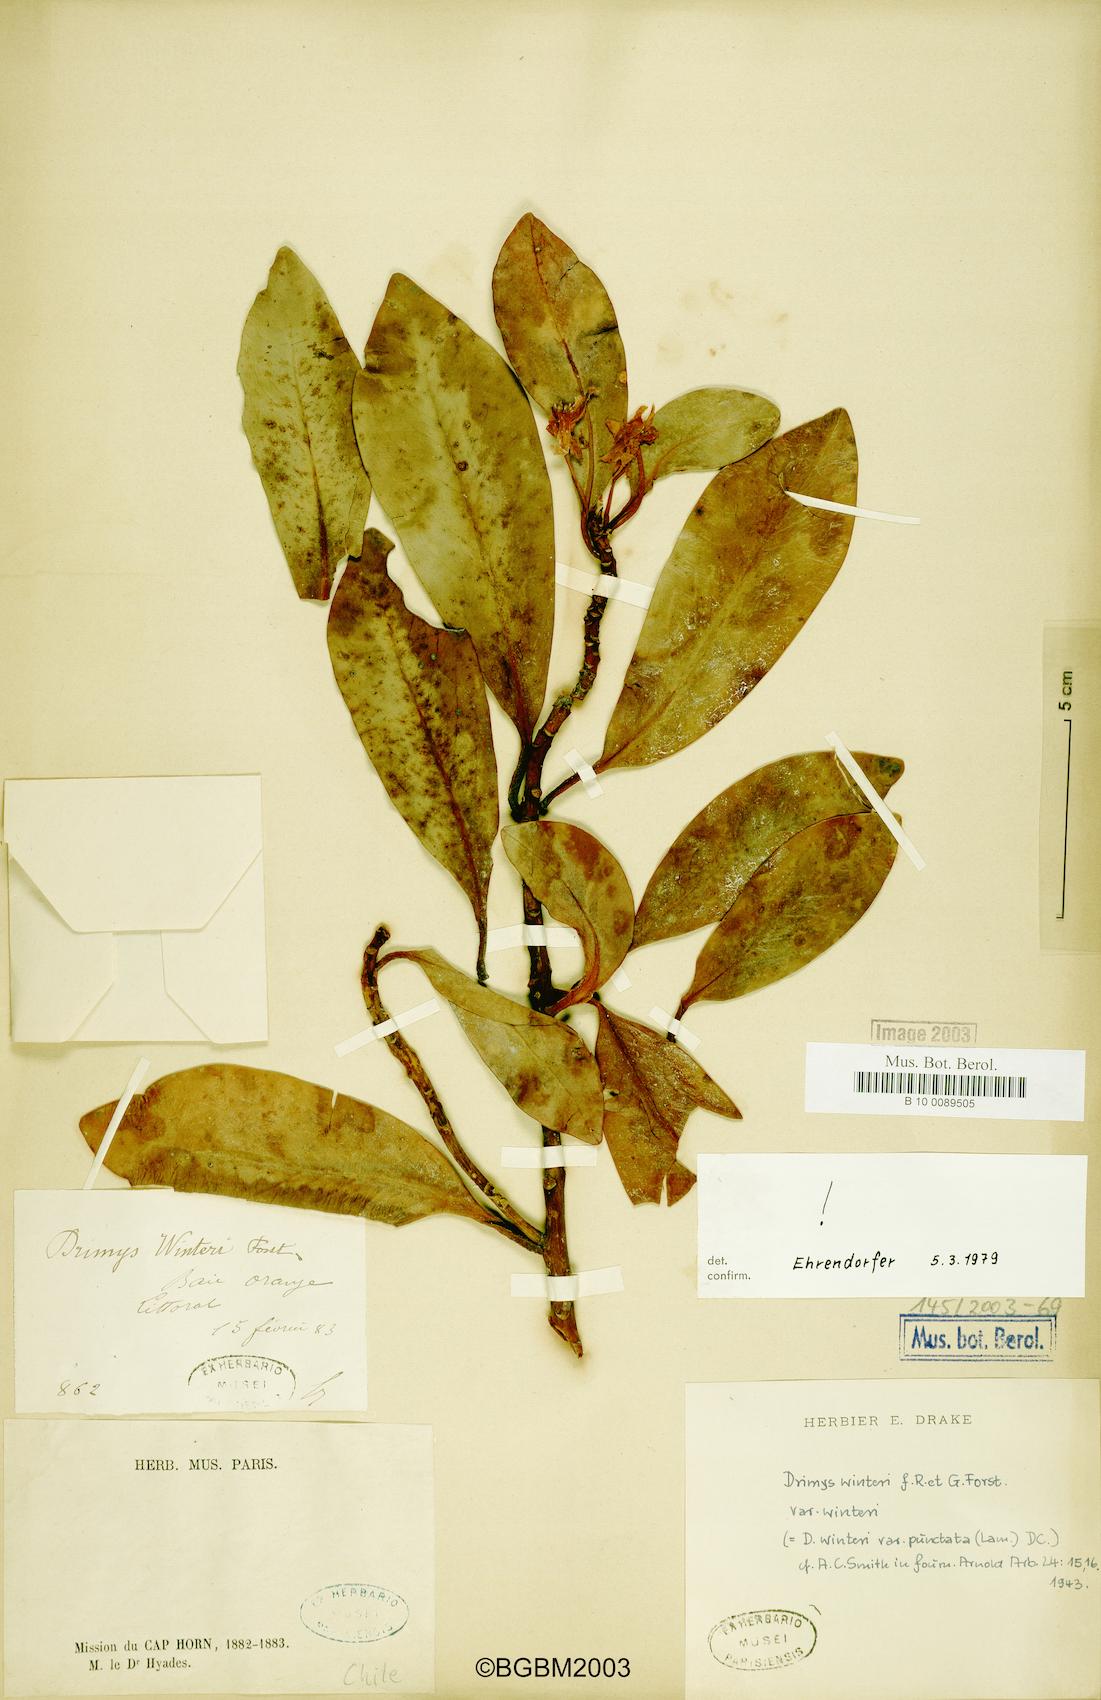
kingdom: Plantae
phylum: Tracheophyta
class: Magnoliopsida
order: Canellales
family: Winteraceae
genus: Drimys
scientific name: Drimys winteri
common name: Winter's-bark
